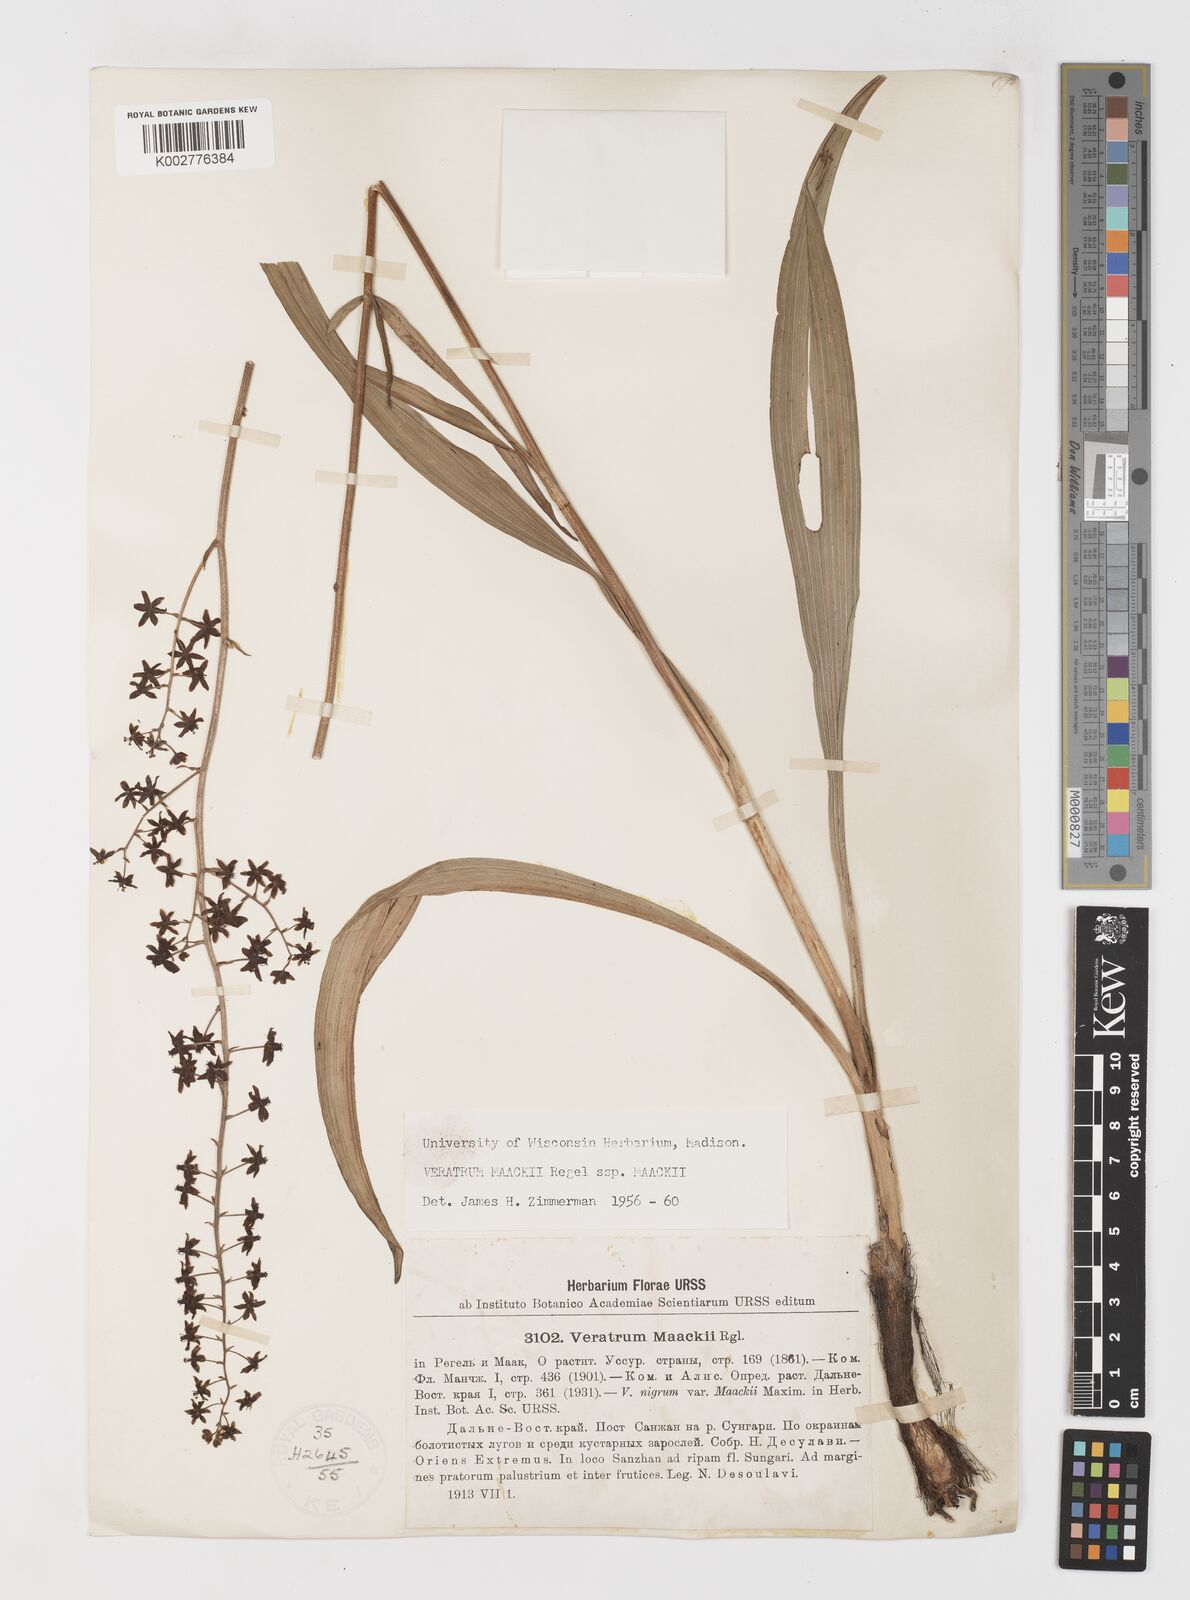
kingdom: Plantae
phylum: Tracheophyta
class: Liliopsida
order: Liliales
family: Melanthiaceae
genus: Veratrum
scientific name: Veratrum maackii
